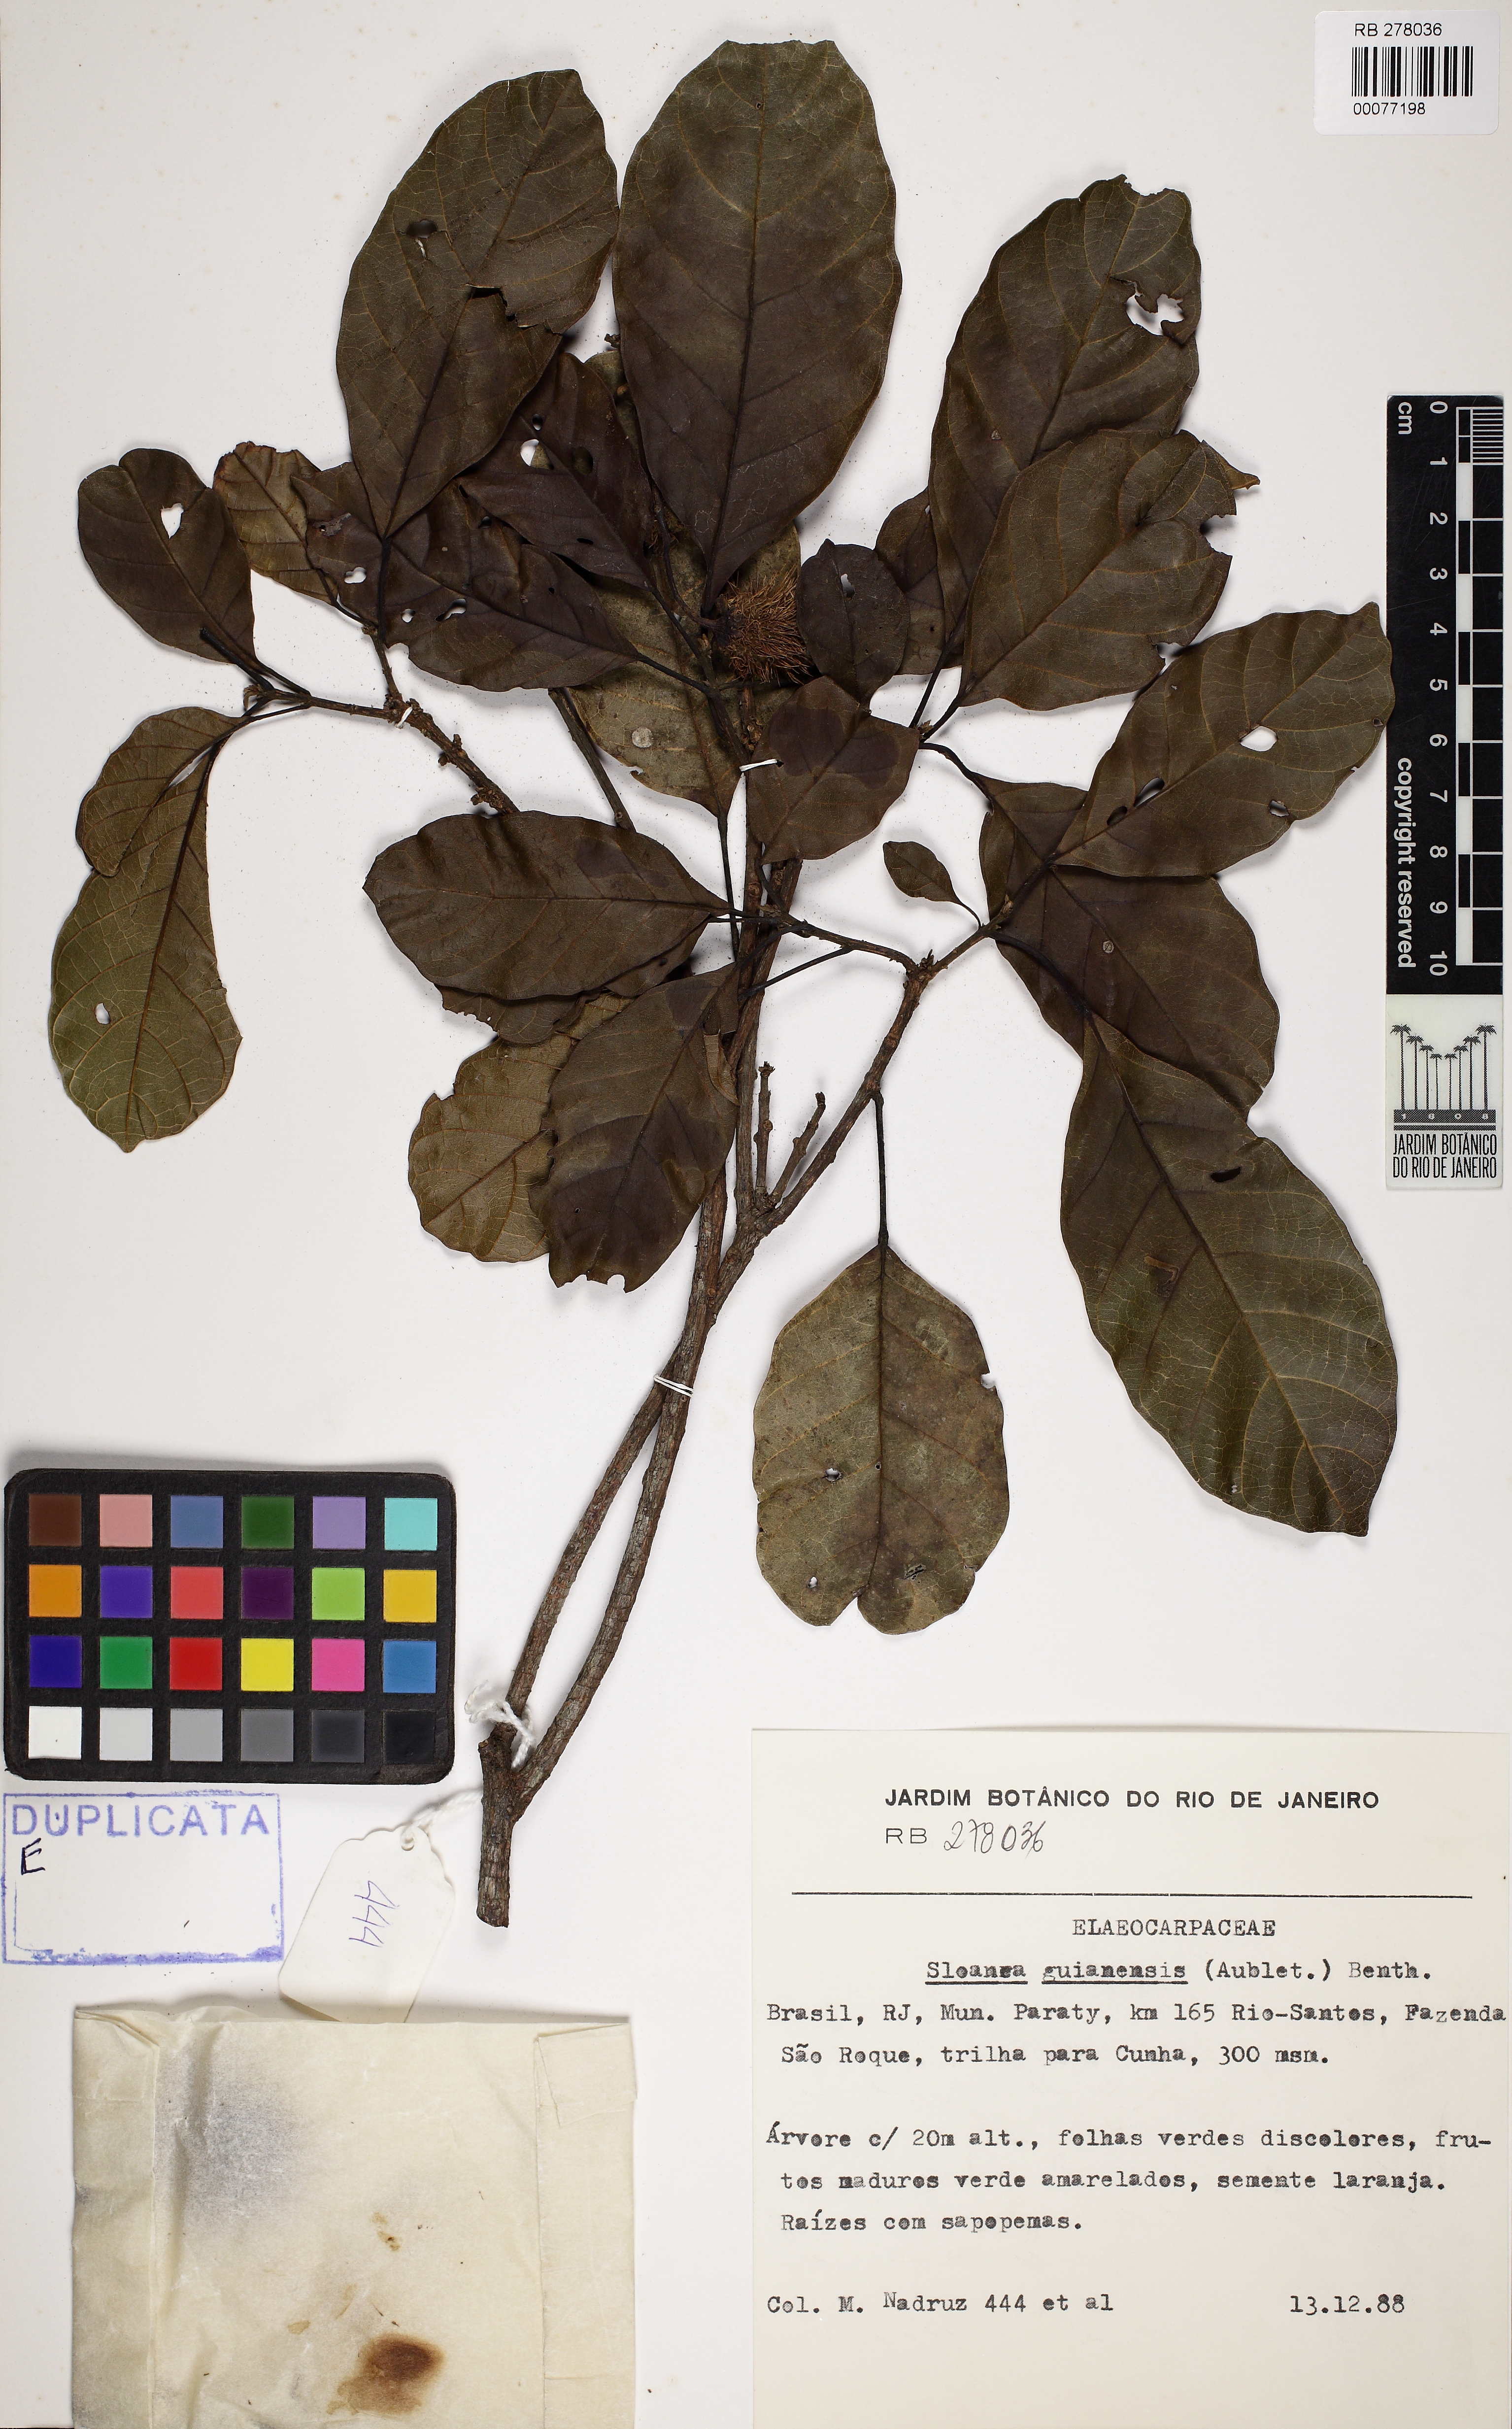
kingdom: Plantae
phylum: Tracheophyta
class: Magnoliopsida
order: Oxalidales
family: Elaeocarpaceae
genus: Sloanea
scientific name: Sloanea guianensis
